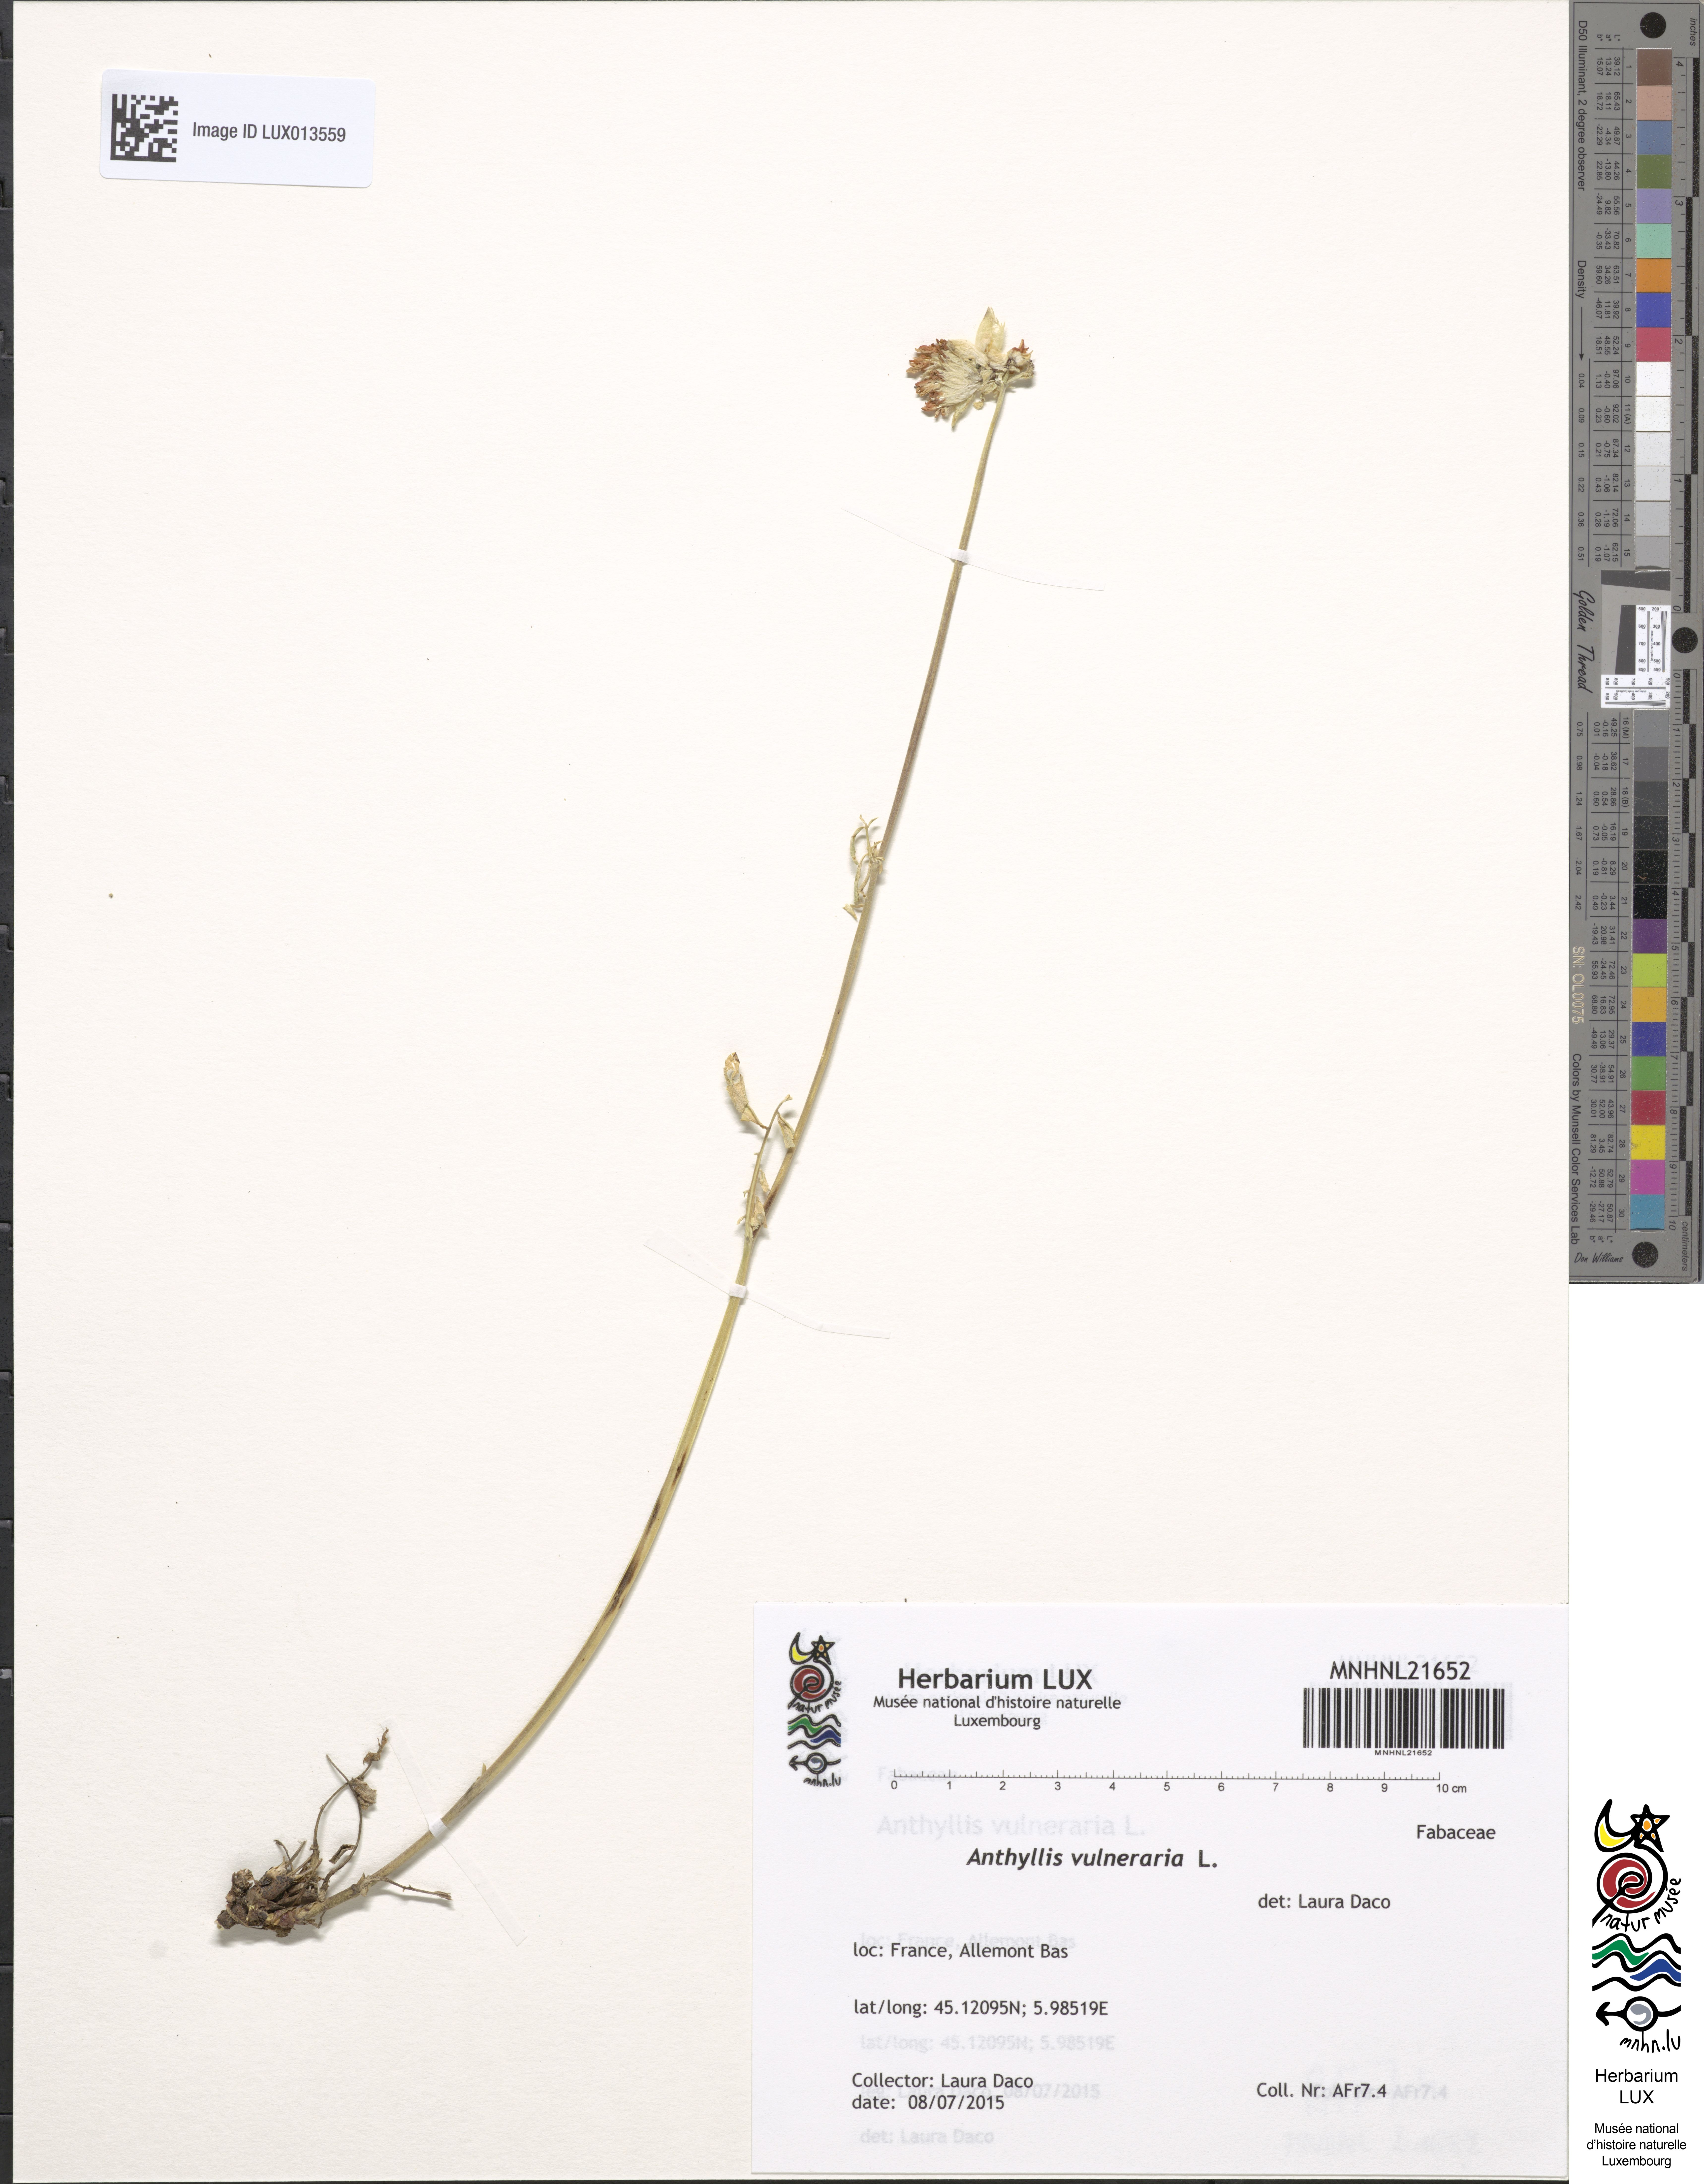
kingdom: Plantae
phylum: Tracheophyta
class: Magnoliopsida
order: Fabales
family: Fabaceae
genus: Anthyllis
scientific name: Anthyllis vulneraria
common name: Kidney vetch
